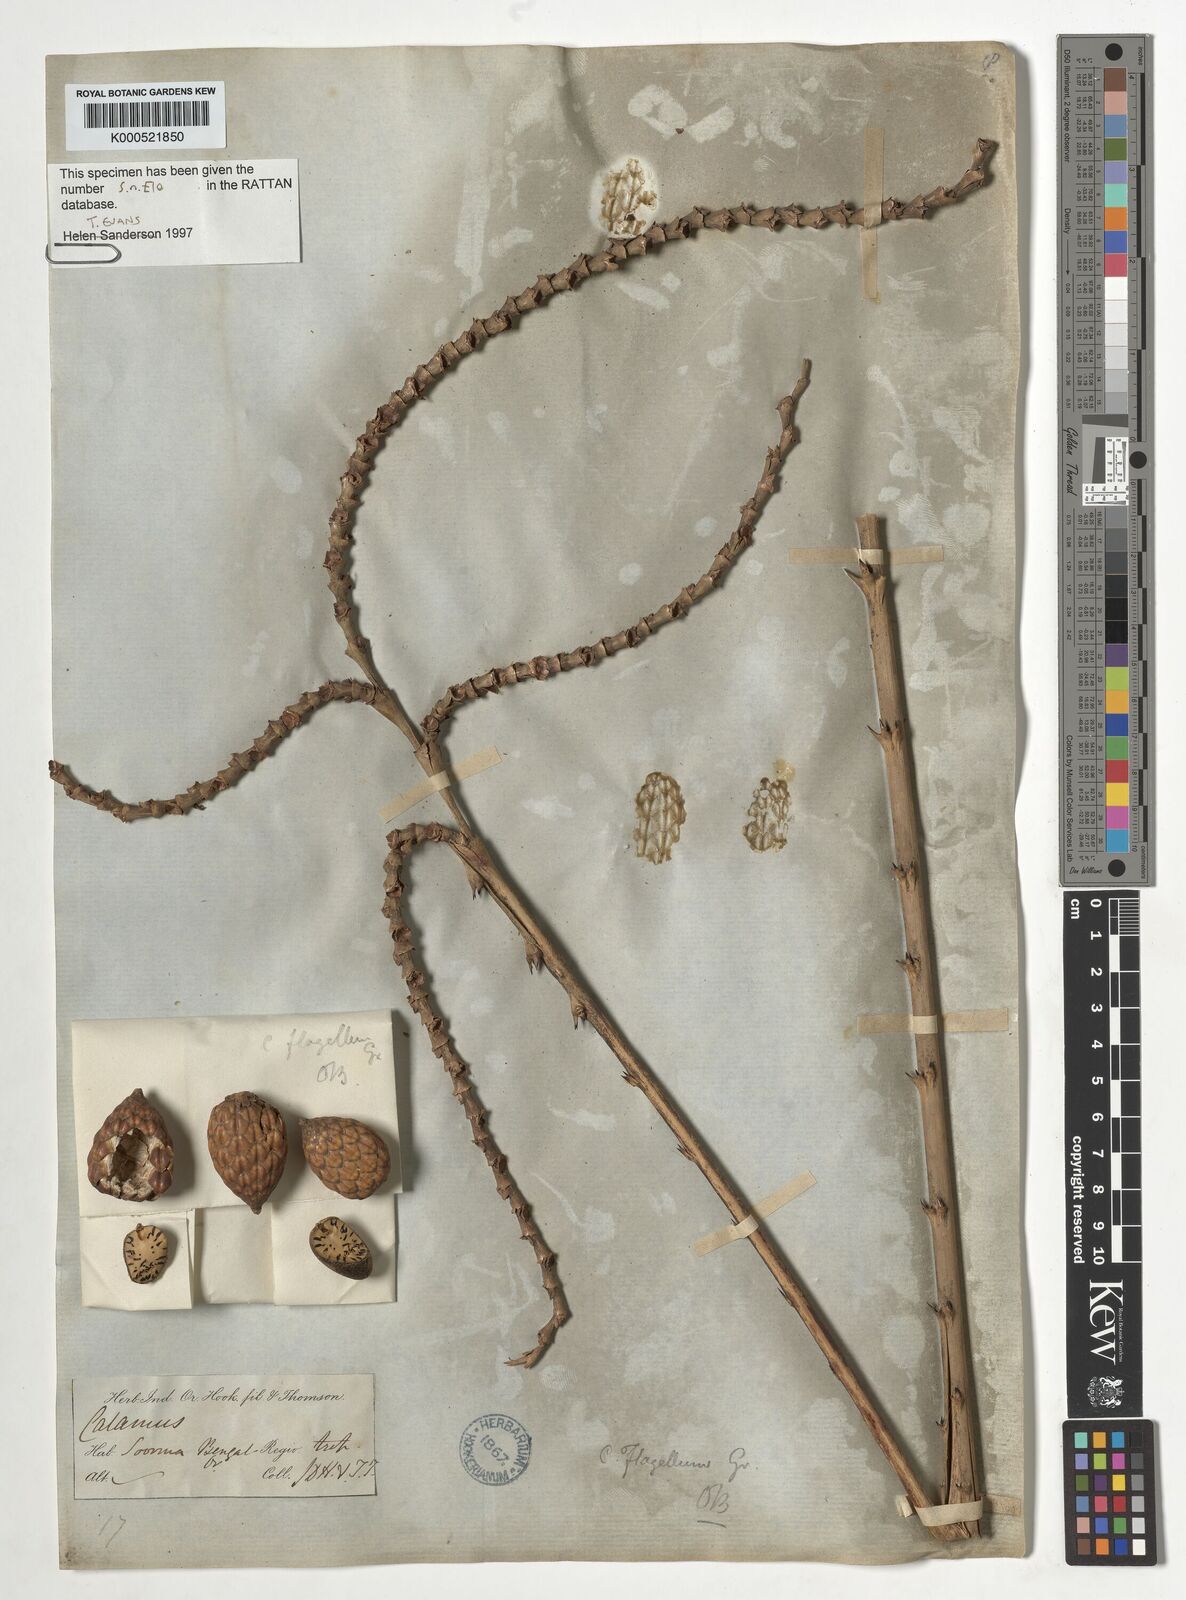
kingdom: Plantae
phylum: Tracheophyta
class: Liliopsida
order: Arecales
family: Arecaceae
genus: Calamus
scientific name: Calamus
